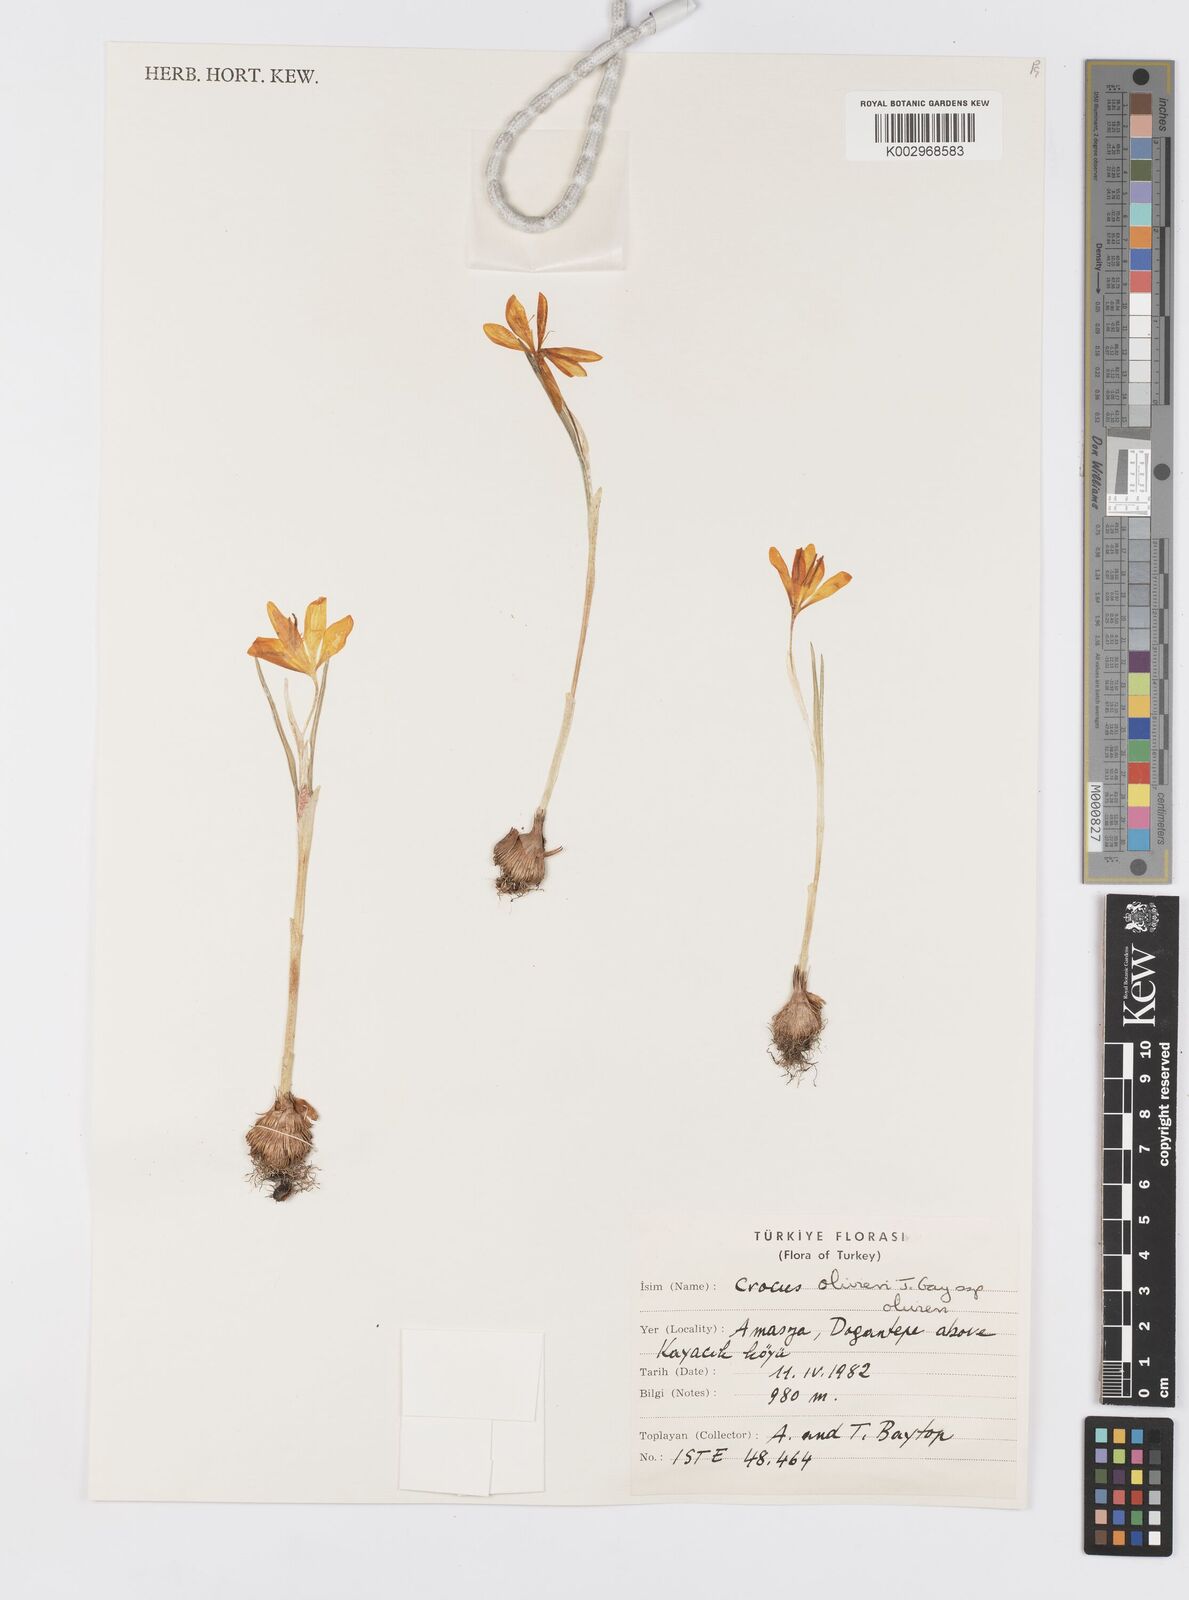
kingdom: Plantae
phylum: Tracheophyta
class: Liliopsida
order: Asparagales
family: Iridaceae
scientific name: Iridaceae
